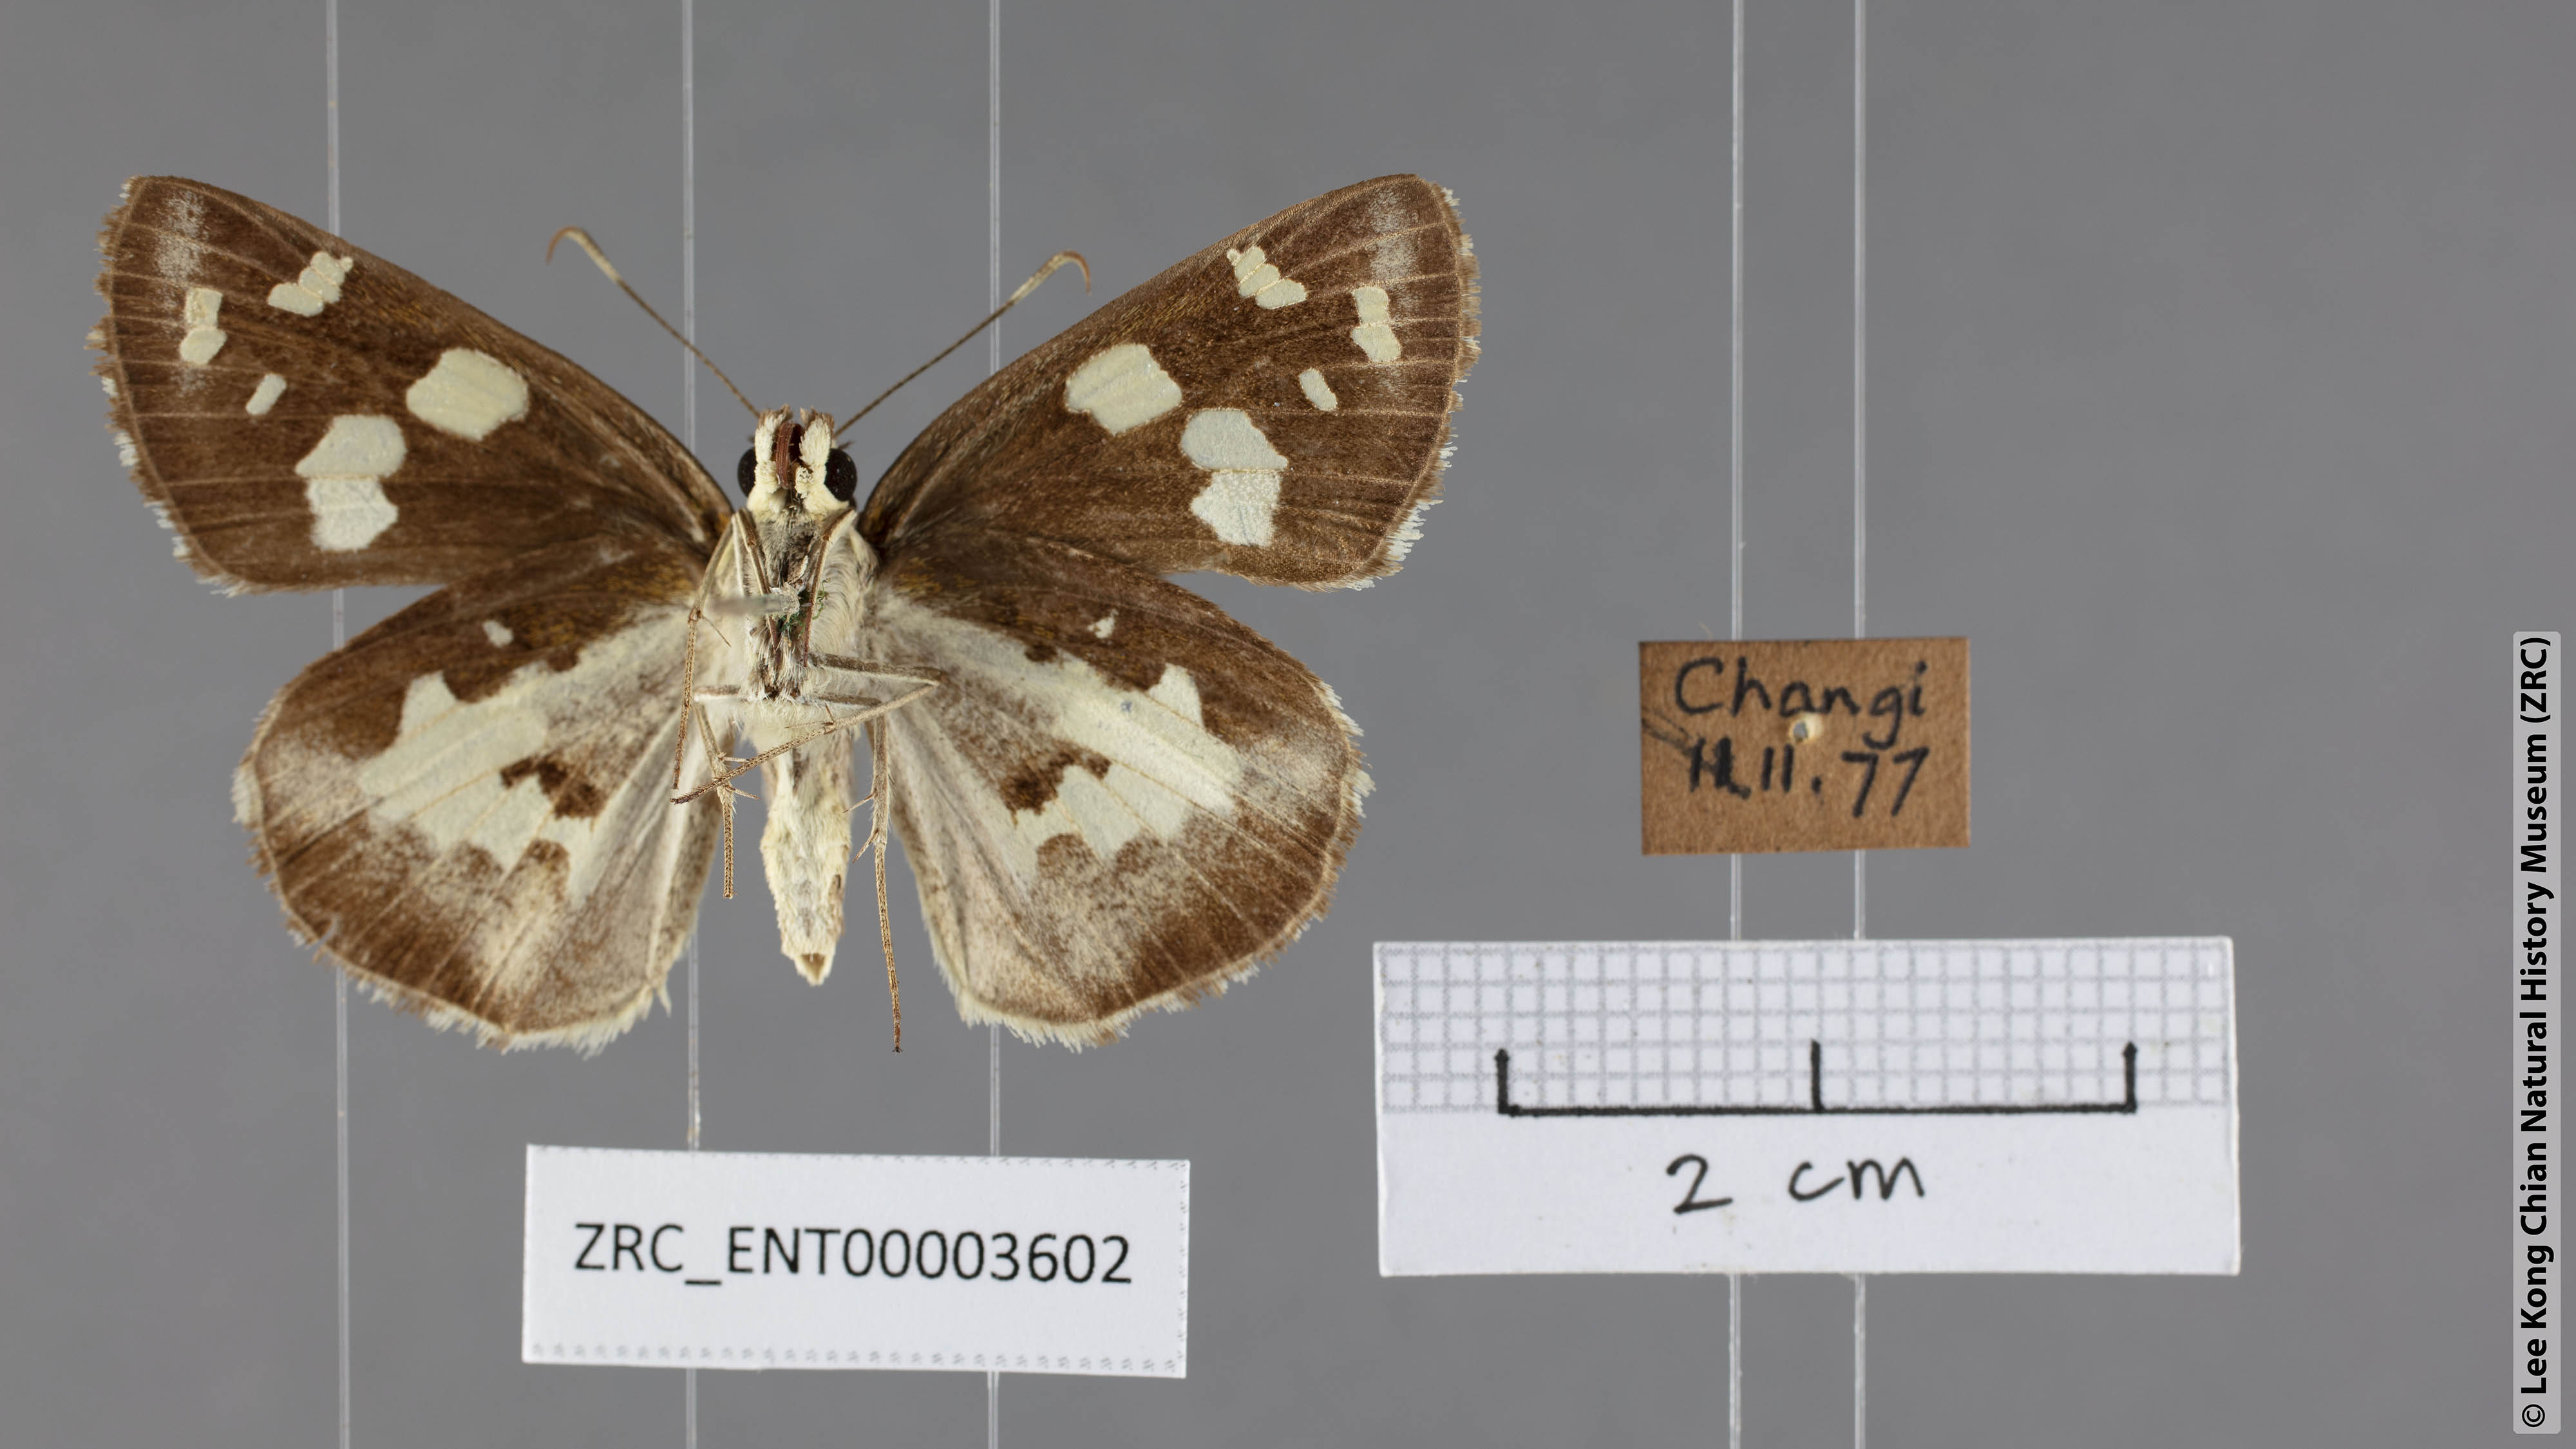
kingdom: Animalia
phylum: Arthropoda
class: Insecta
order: Lepidoptera
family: Hesperiidae
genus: Udaspes
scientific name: Udaspes folus
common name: Grass demon
